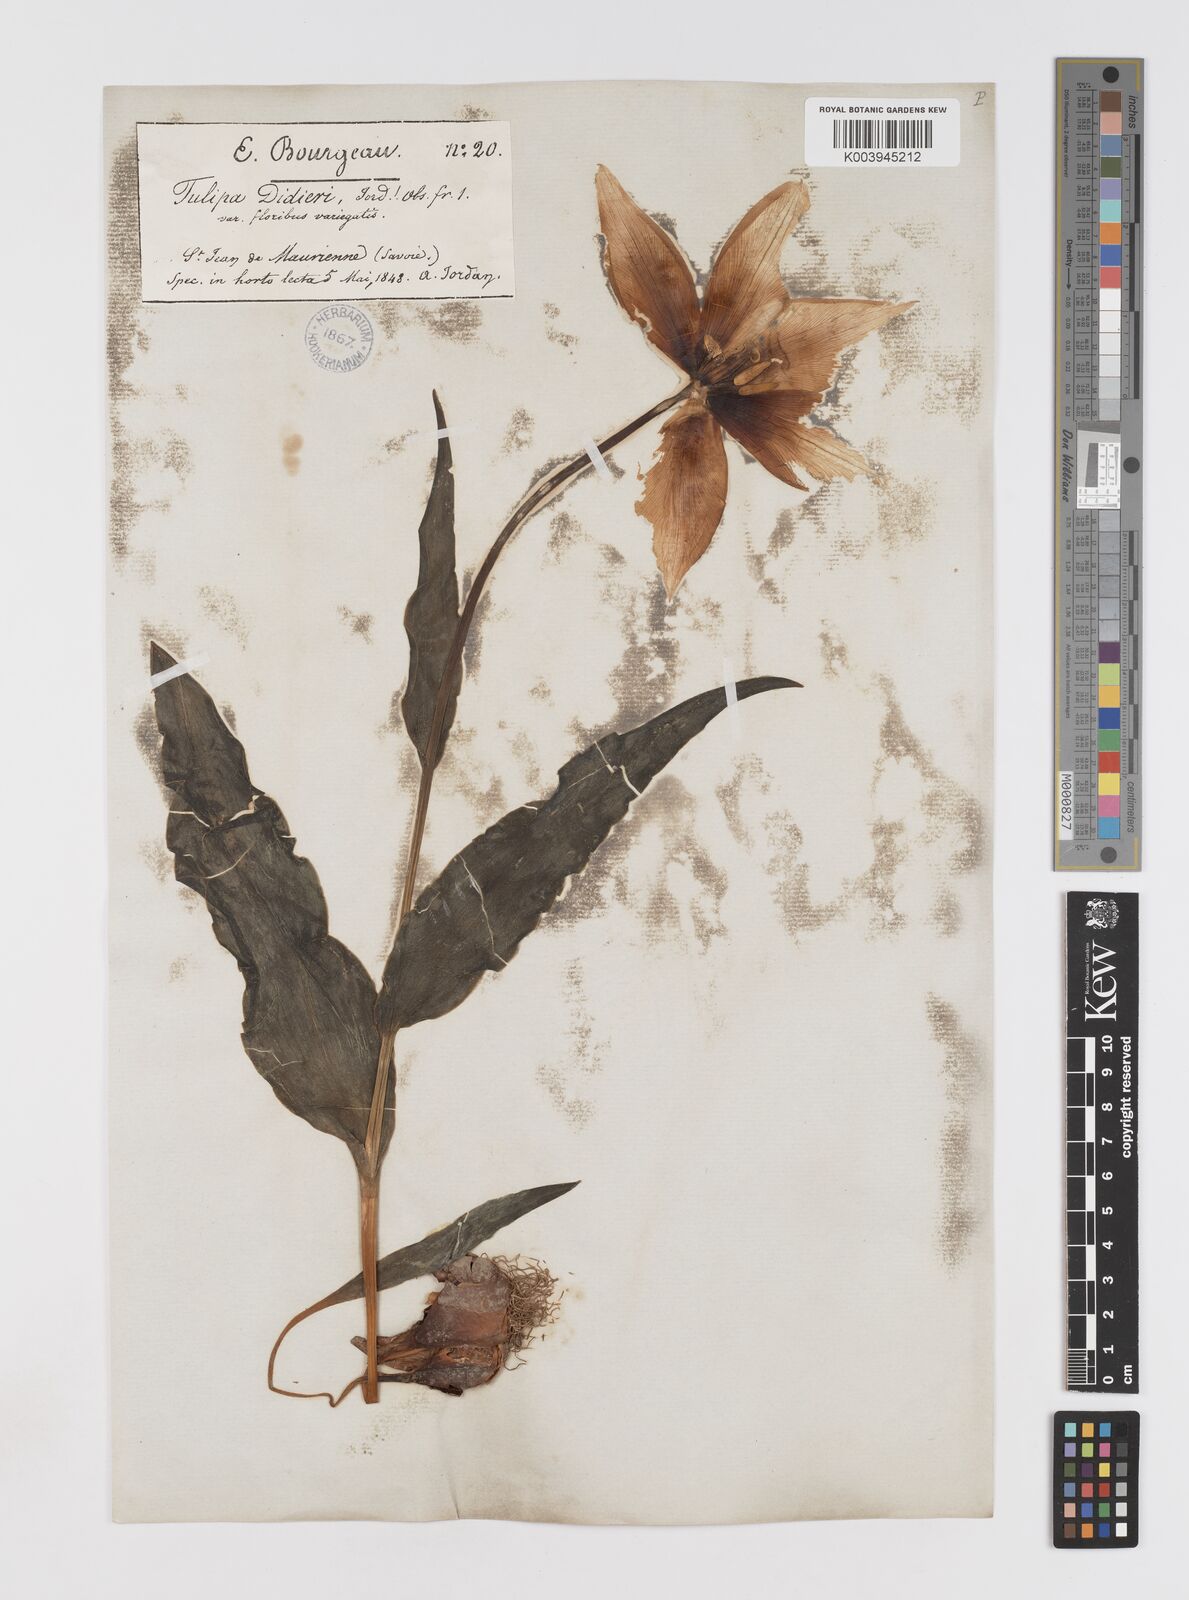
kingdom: Plantae
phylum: Tracheophyta
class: Liliopsida
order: Liliales
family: Liliaceae
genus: Tulipa
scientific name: Tulipa gesneriana
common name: Garden tulip
